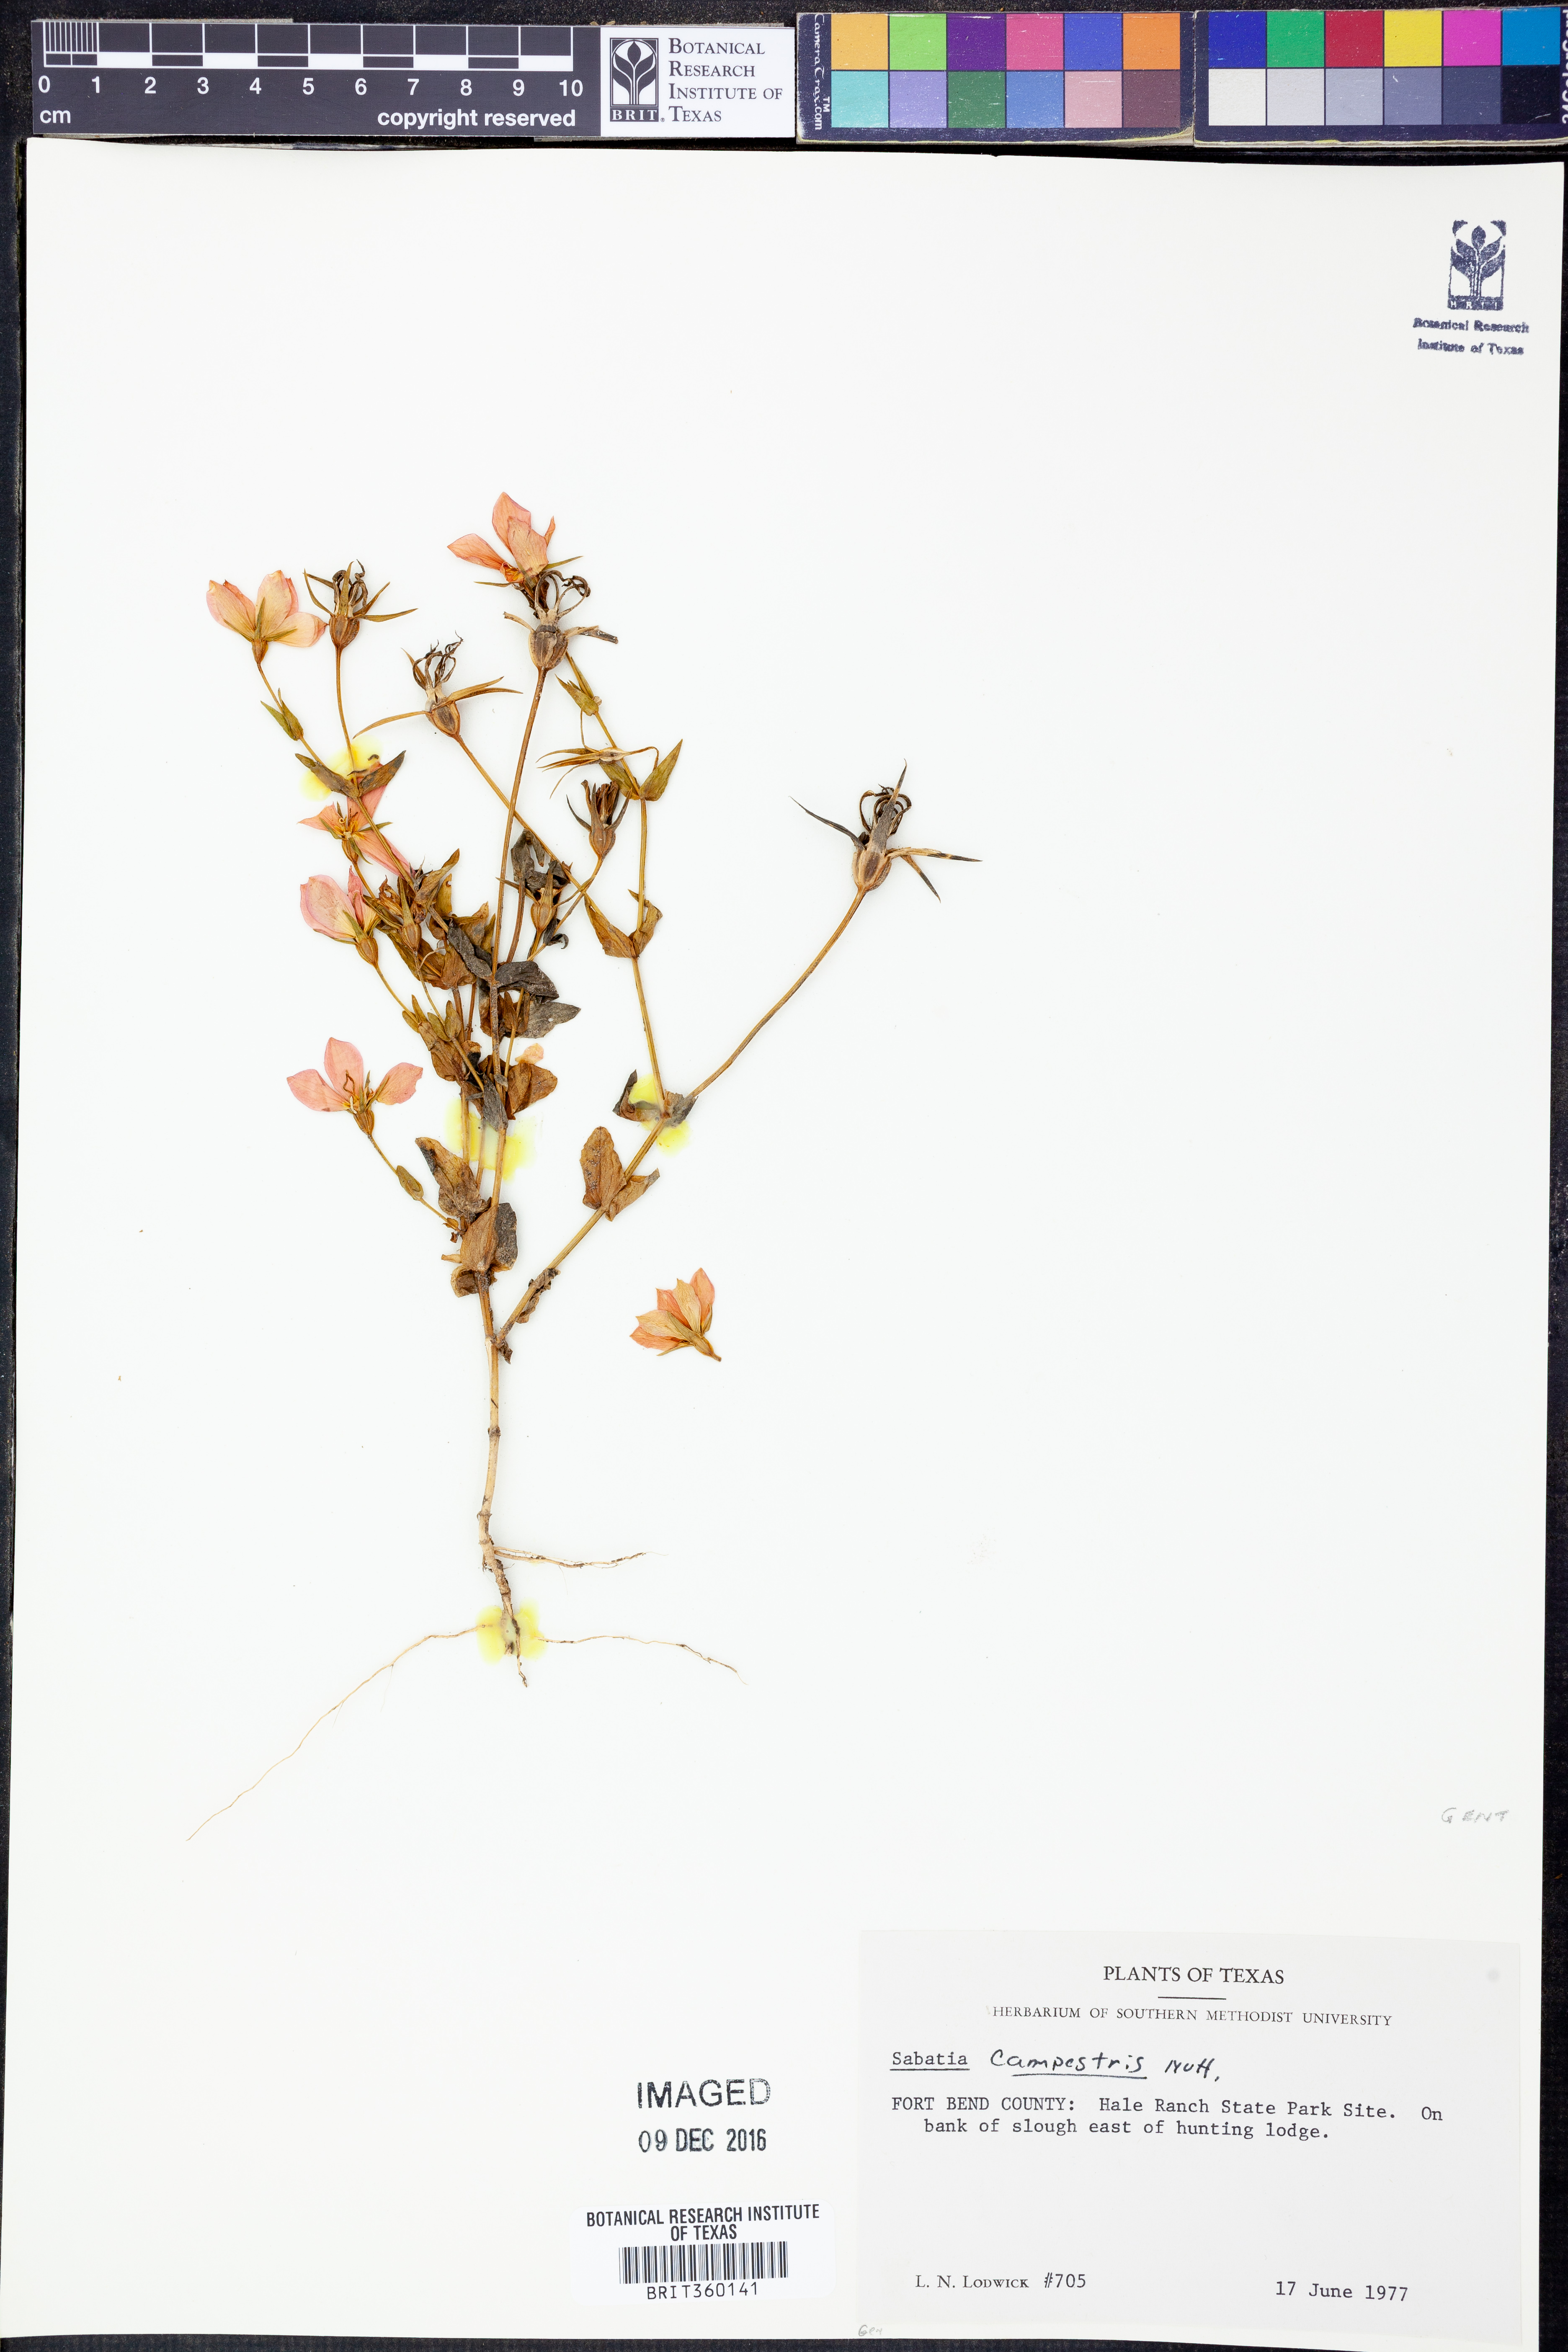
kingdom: Plantae
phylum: Tracheophyta
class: Magnoliopsida
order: Gentianales
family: Gentianaceae
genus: Sabatia
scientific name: Sabatia campestris
